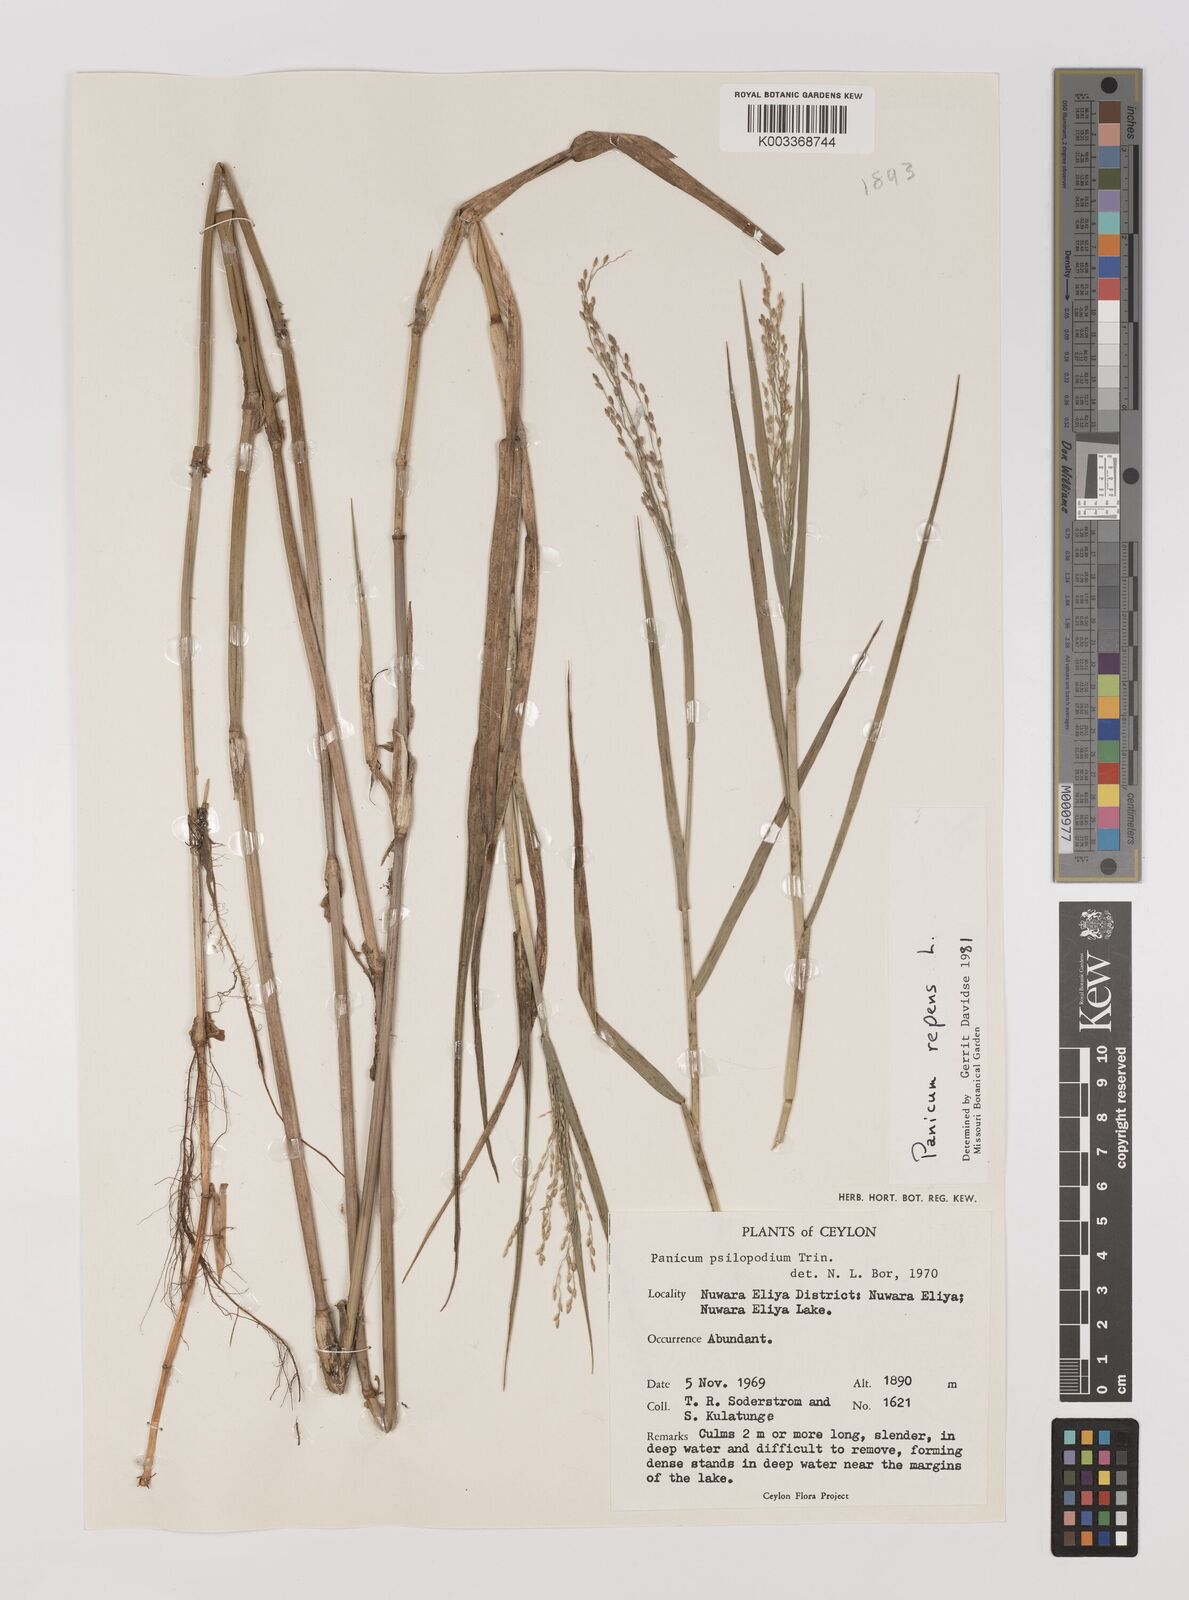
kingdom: Plantae
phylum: Tracheophyta
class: Liliopsida
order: Poales
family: Poaceae
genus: Panicum
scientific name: Panicum repens
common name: Torpedo grass
